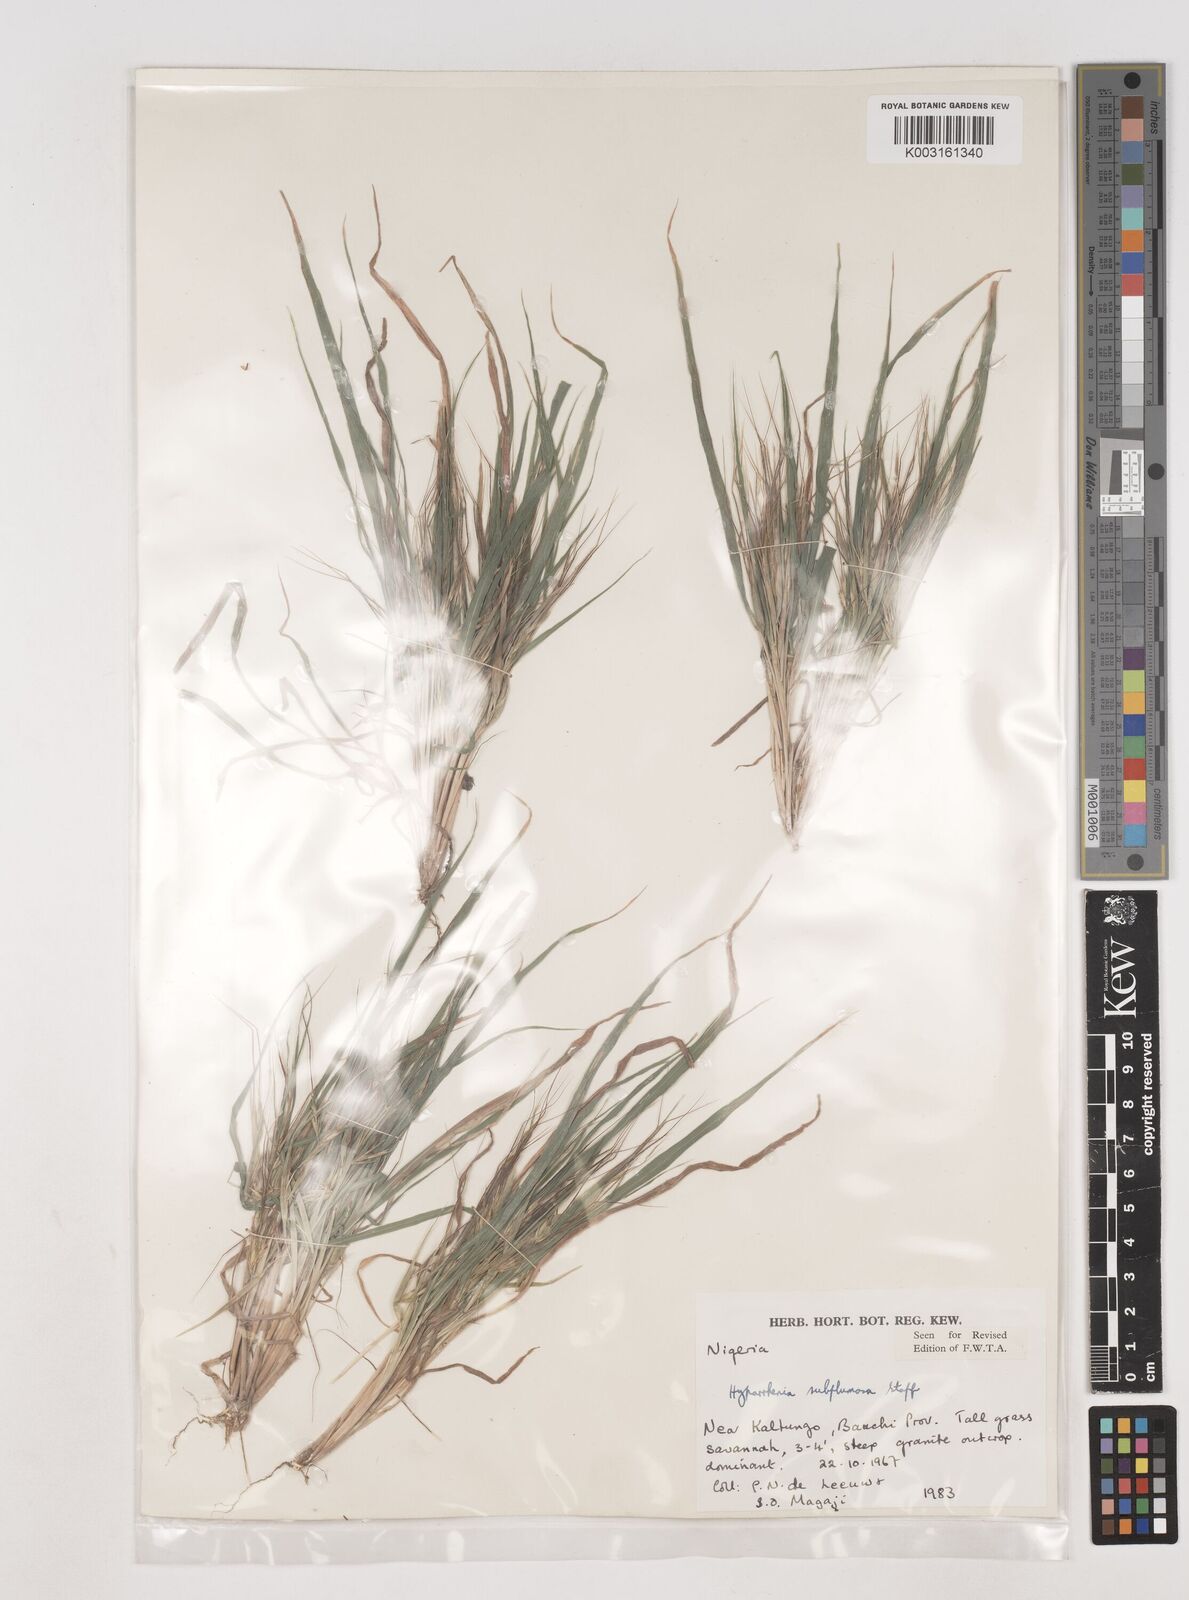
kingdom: Plantae
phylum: Tracheophyta
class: Liliopsida
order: Poales
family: Poaceae
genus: Hyparrhenia
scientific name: Hyparrhenia subplumosa
